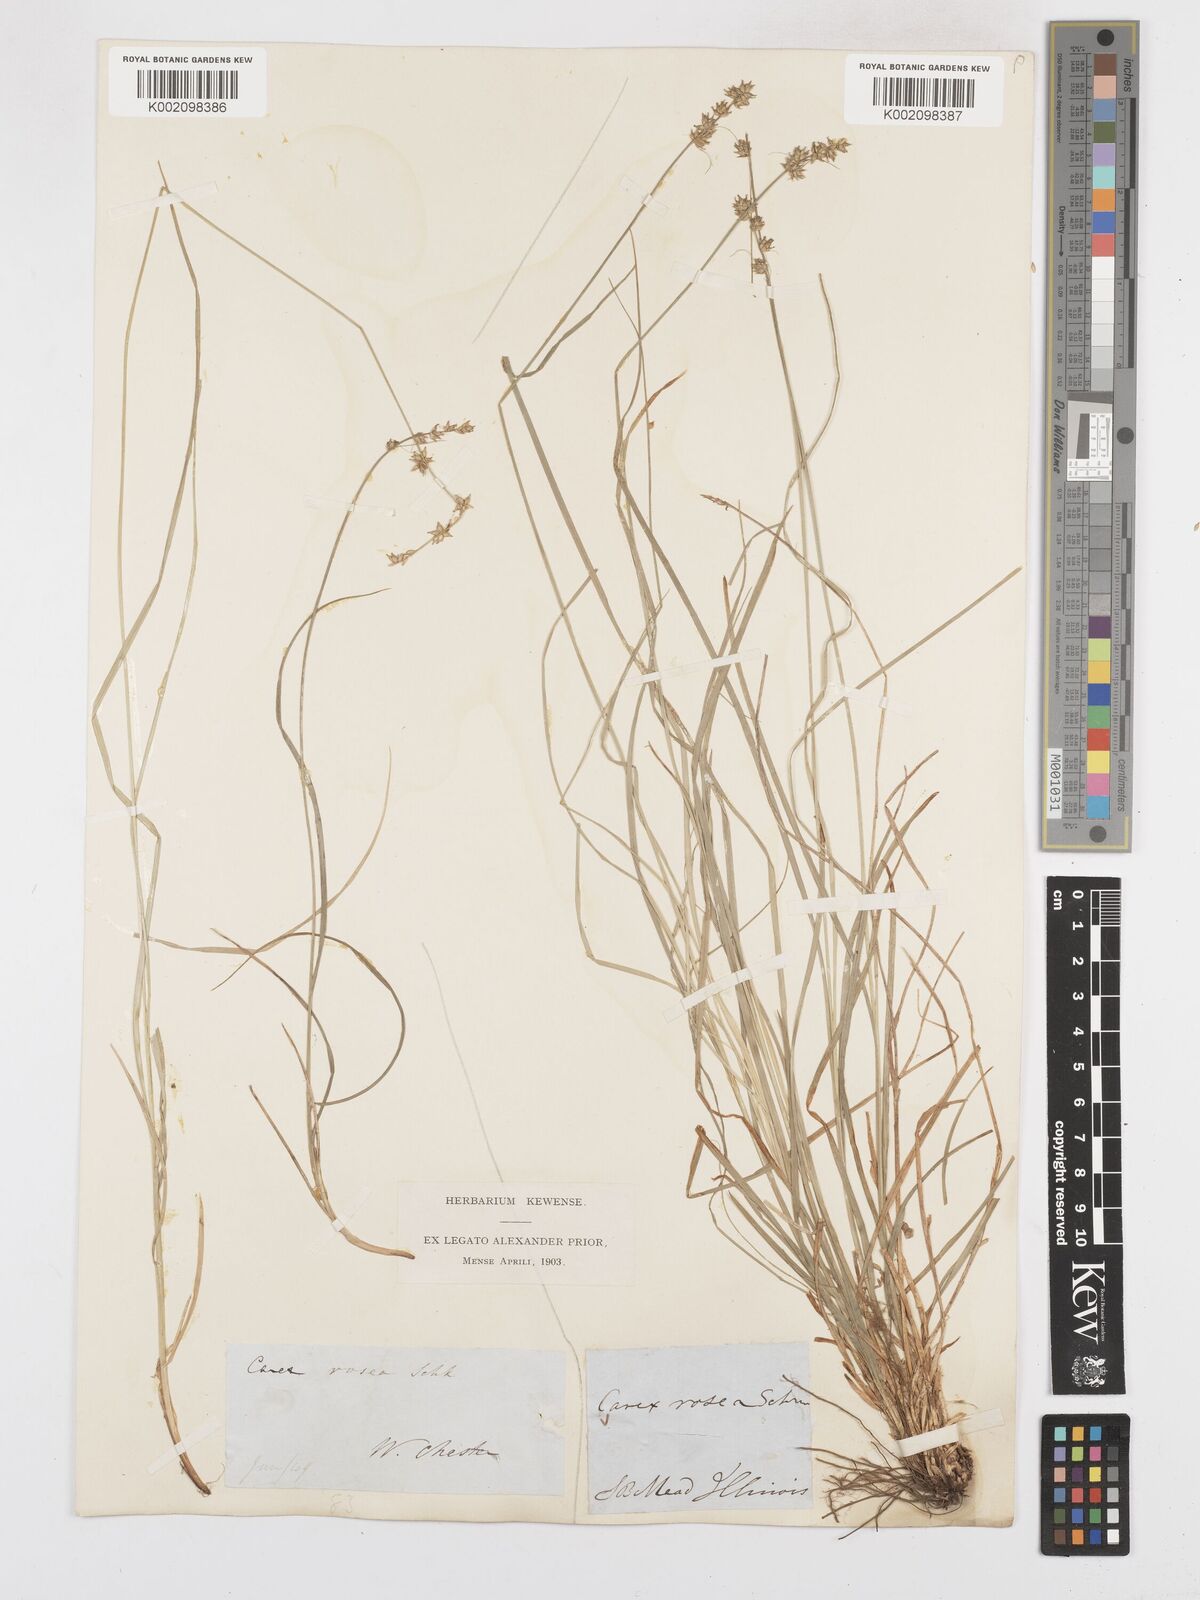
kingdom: Plantae
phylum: Tracheophyta
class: Liliopsida
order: Poales
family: Cyperaceae
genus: Carex
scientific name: Carex rosea
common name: Curly-styled wood sedge
